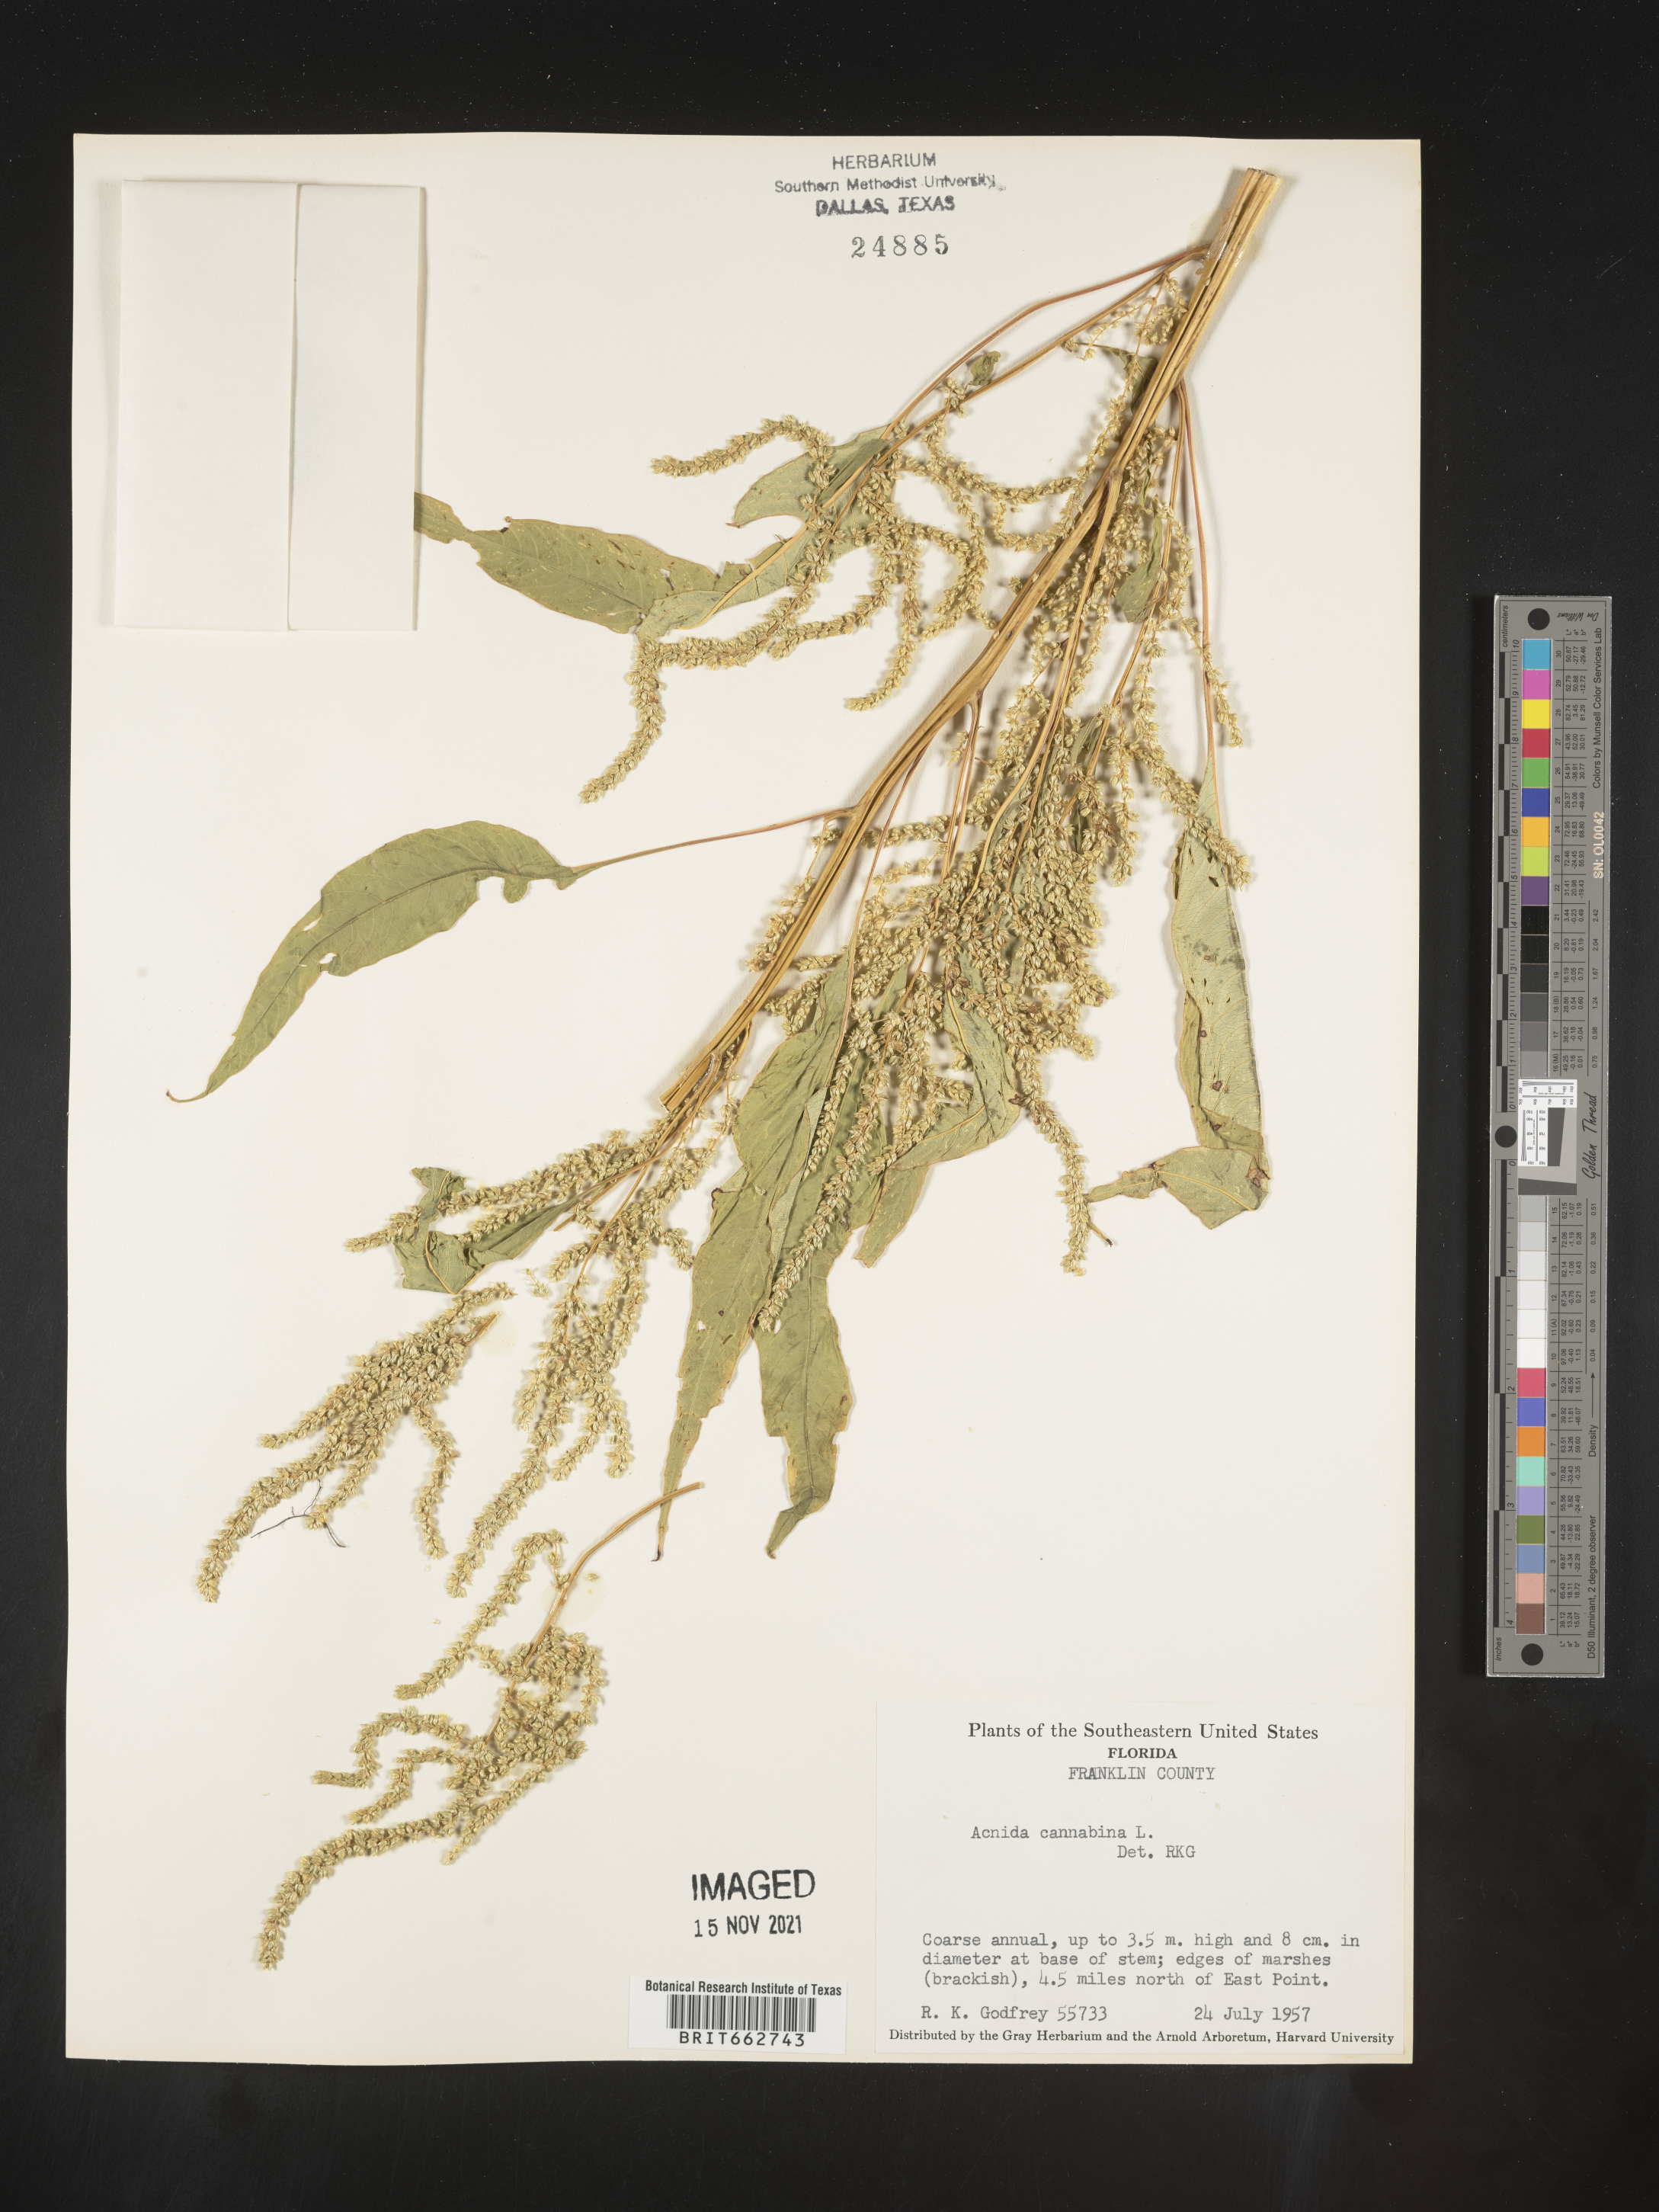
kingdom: Plantae
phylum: Tracheophyta
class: Magnoliopsida
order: Caryophyllales
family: Amaranthaceae
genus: Amaranthus
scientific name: Amaranthus powellii
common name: Powell's amaranth
